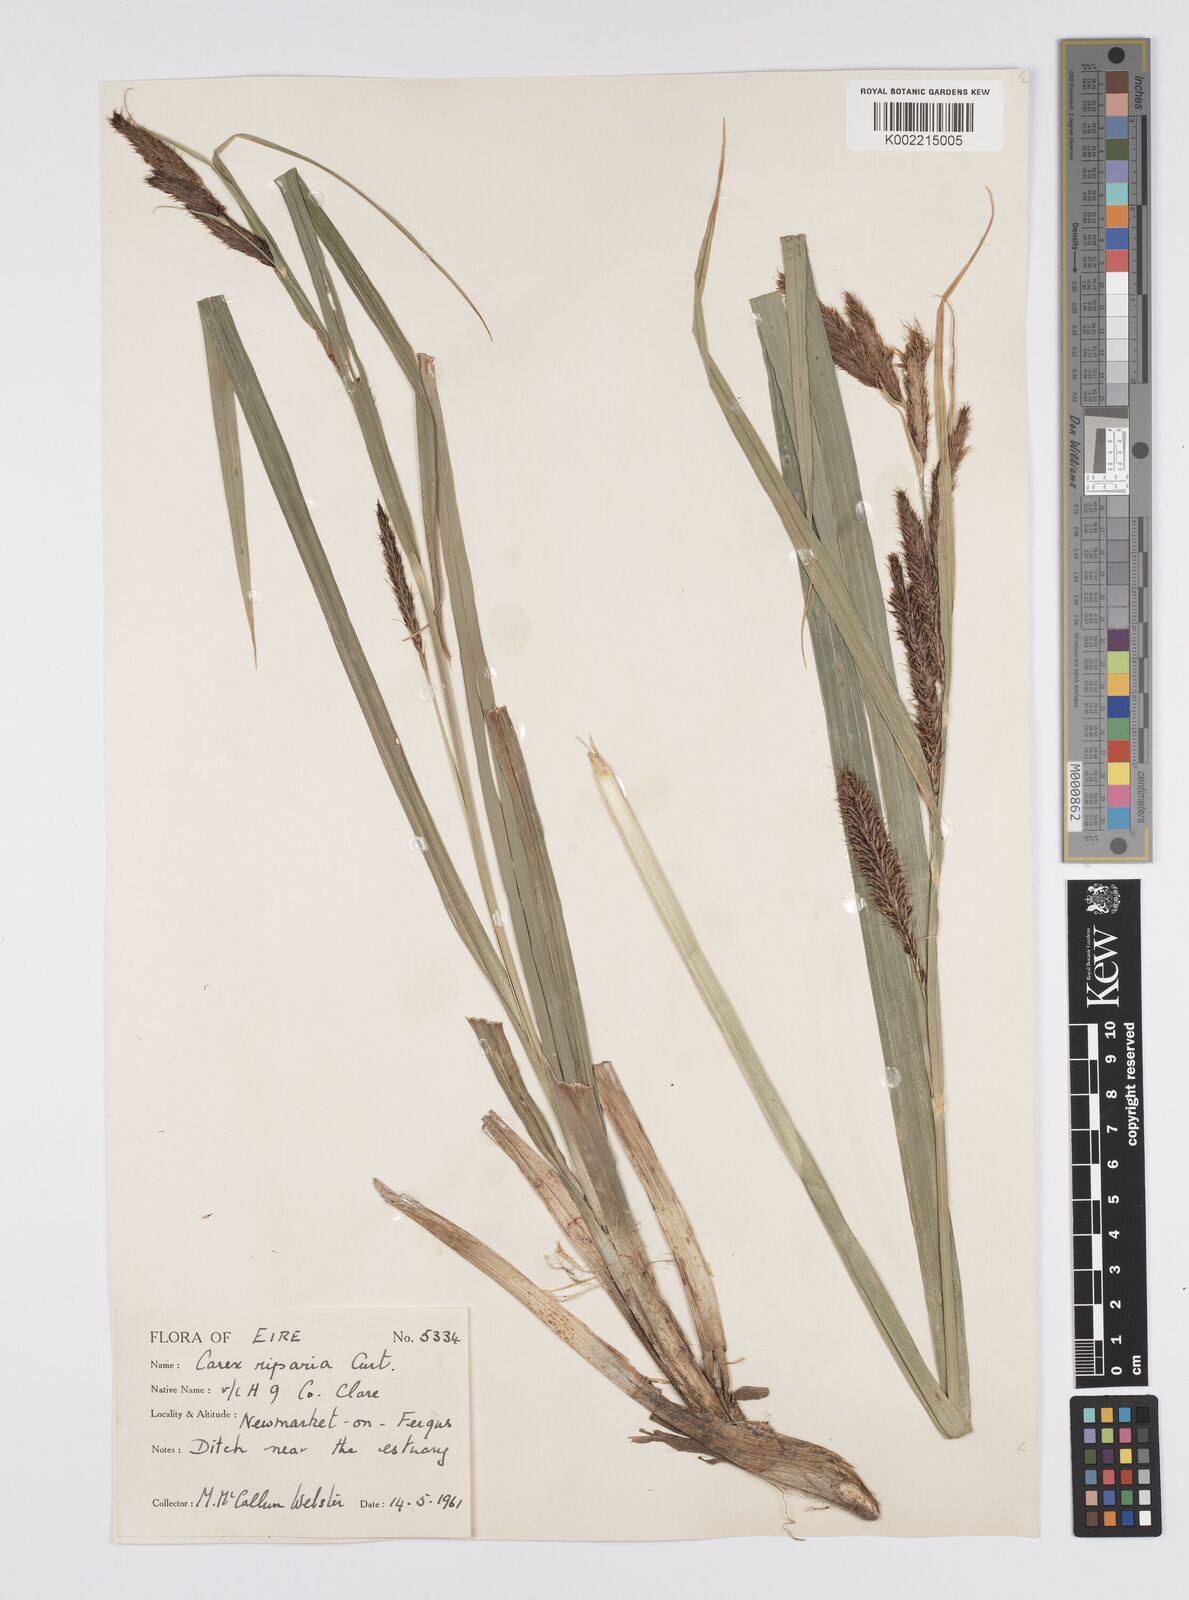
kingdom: Plantae
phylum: Tracheophyta
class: Liliopsida
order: Poales
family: Cyperaceae
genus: Carex
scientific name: Carex riparia
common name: Greater pond-sedge
